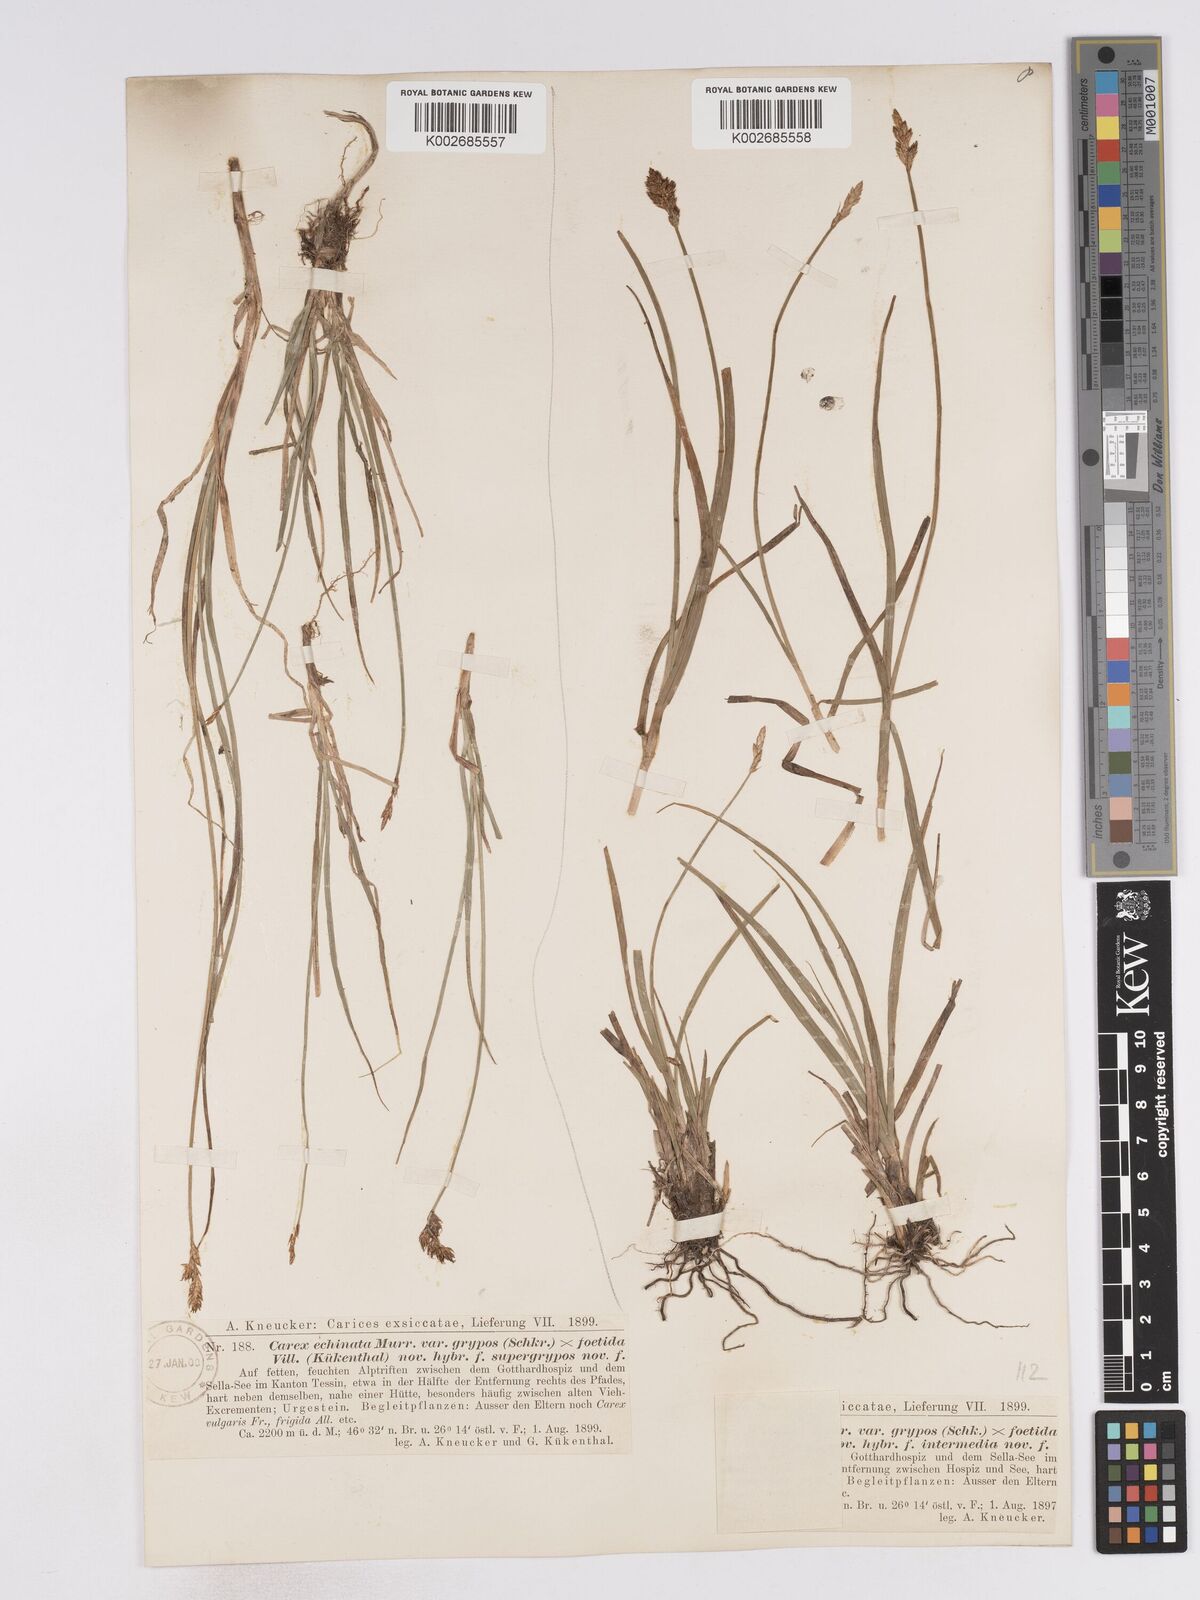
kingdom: Plantae
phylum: Tracheophyta
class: Liliopsida
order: Poales
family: Cyperaceae
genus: Carex
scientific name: Carex echinata
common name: Star sedge
